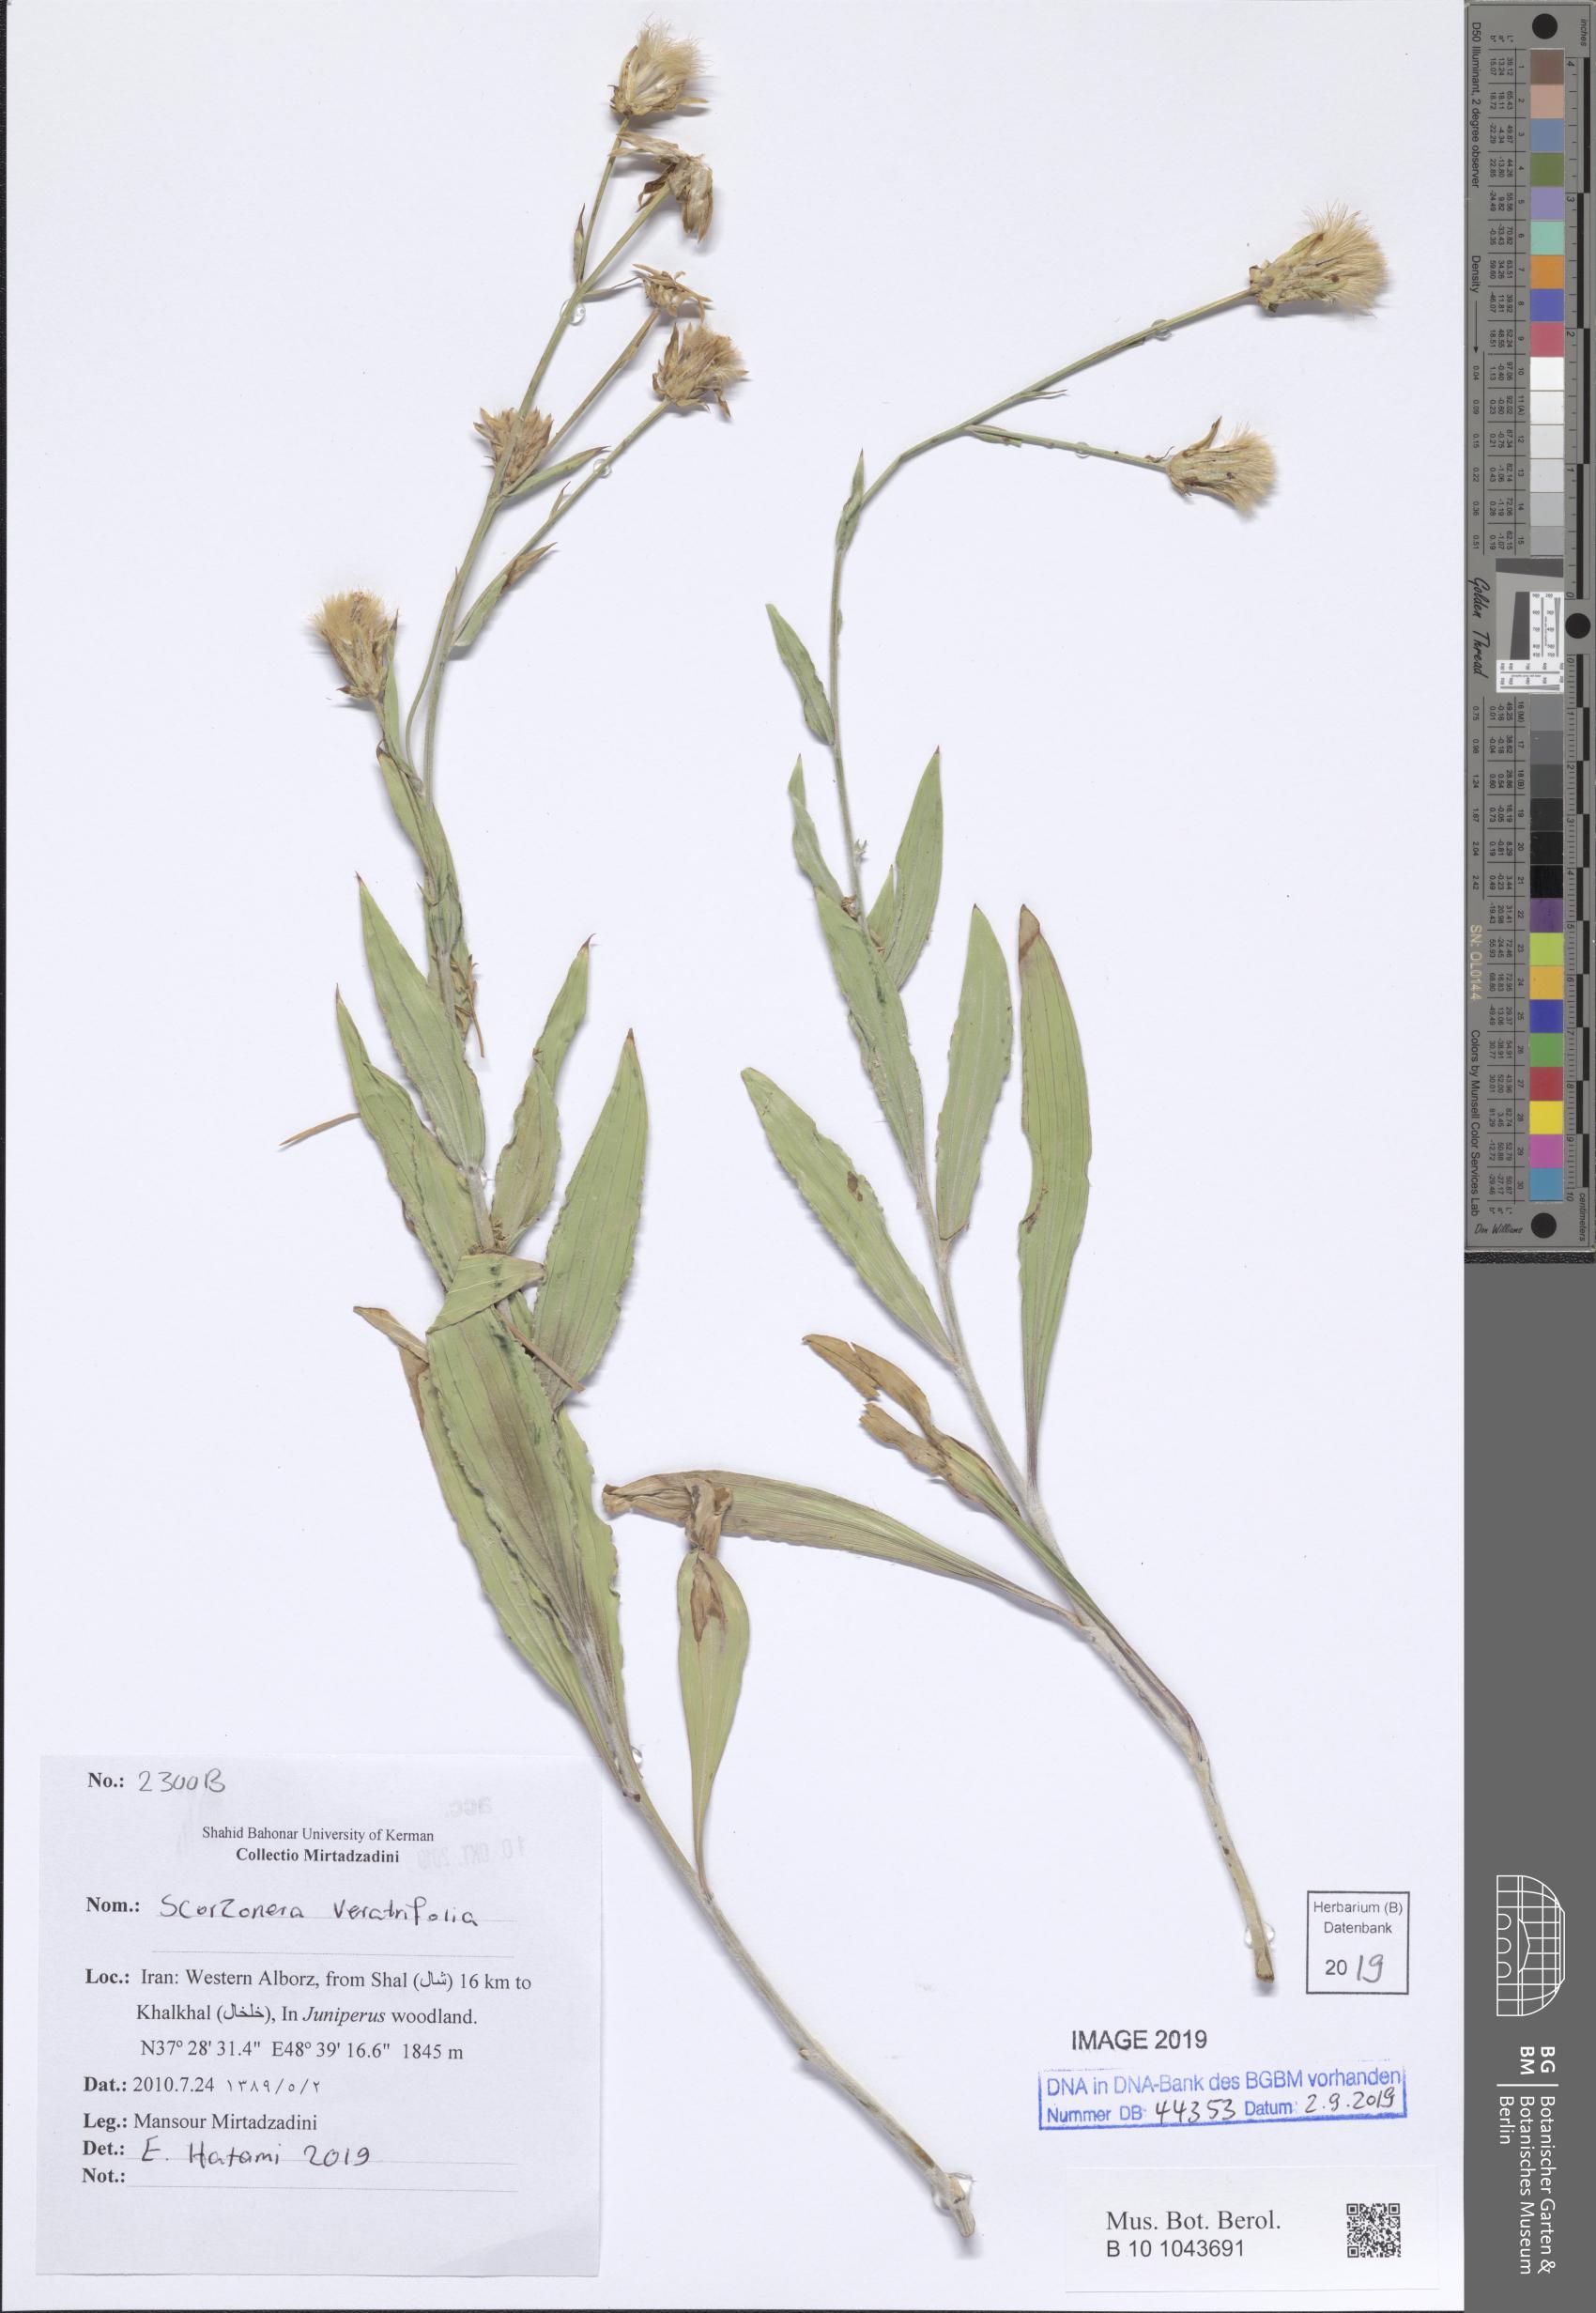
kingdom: Plantae
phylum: Tracheophyta
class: Magnoliopsida
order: Asterales
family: Asteraceae
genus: Guneria
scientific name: Guneria veratrifolia
